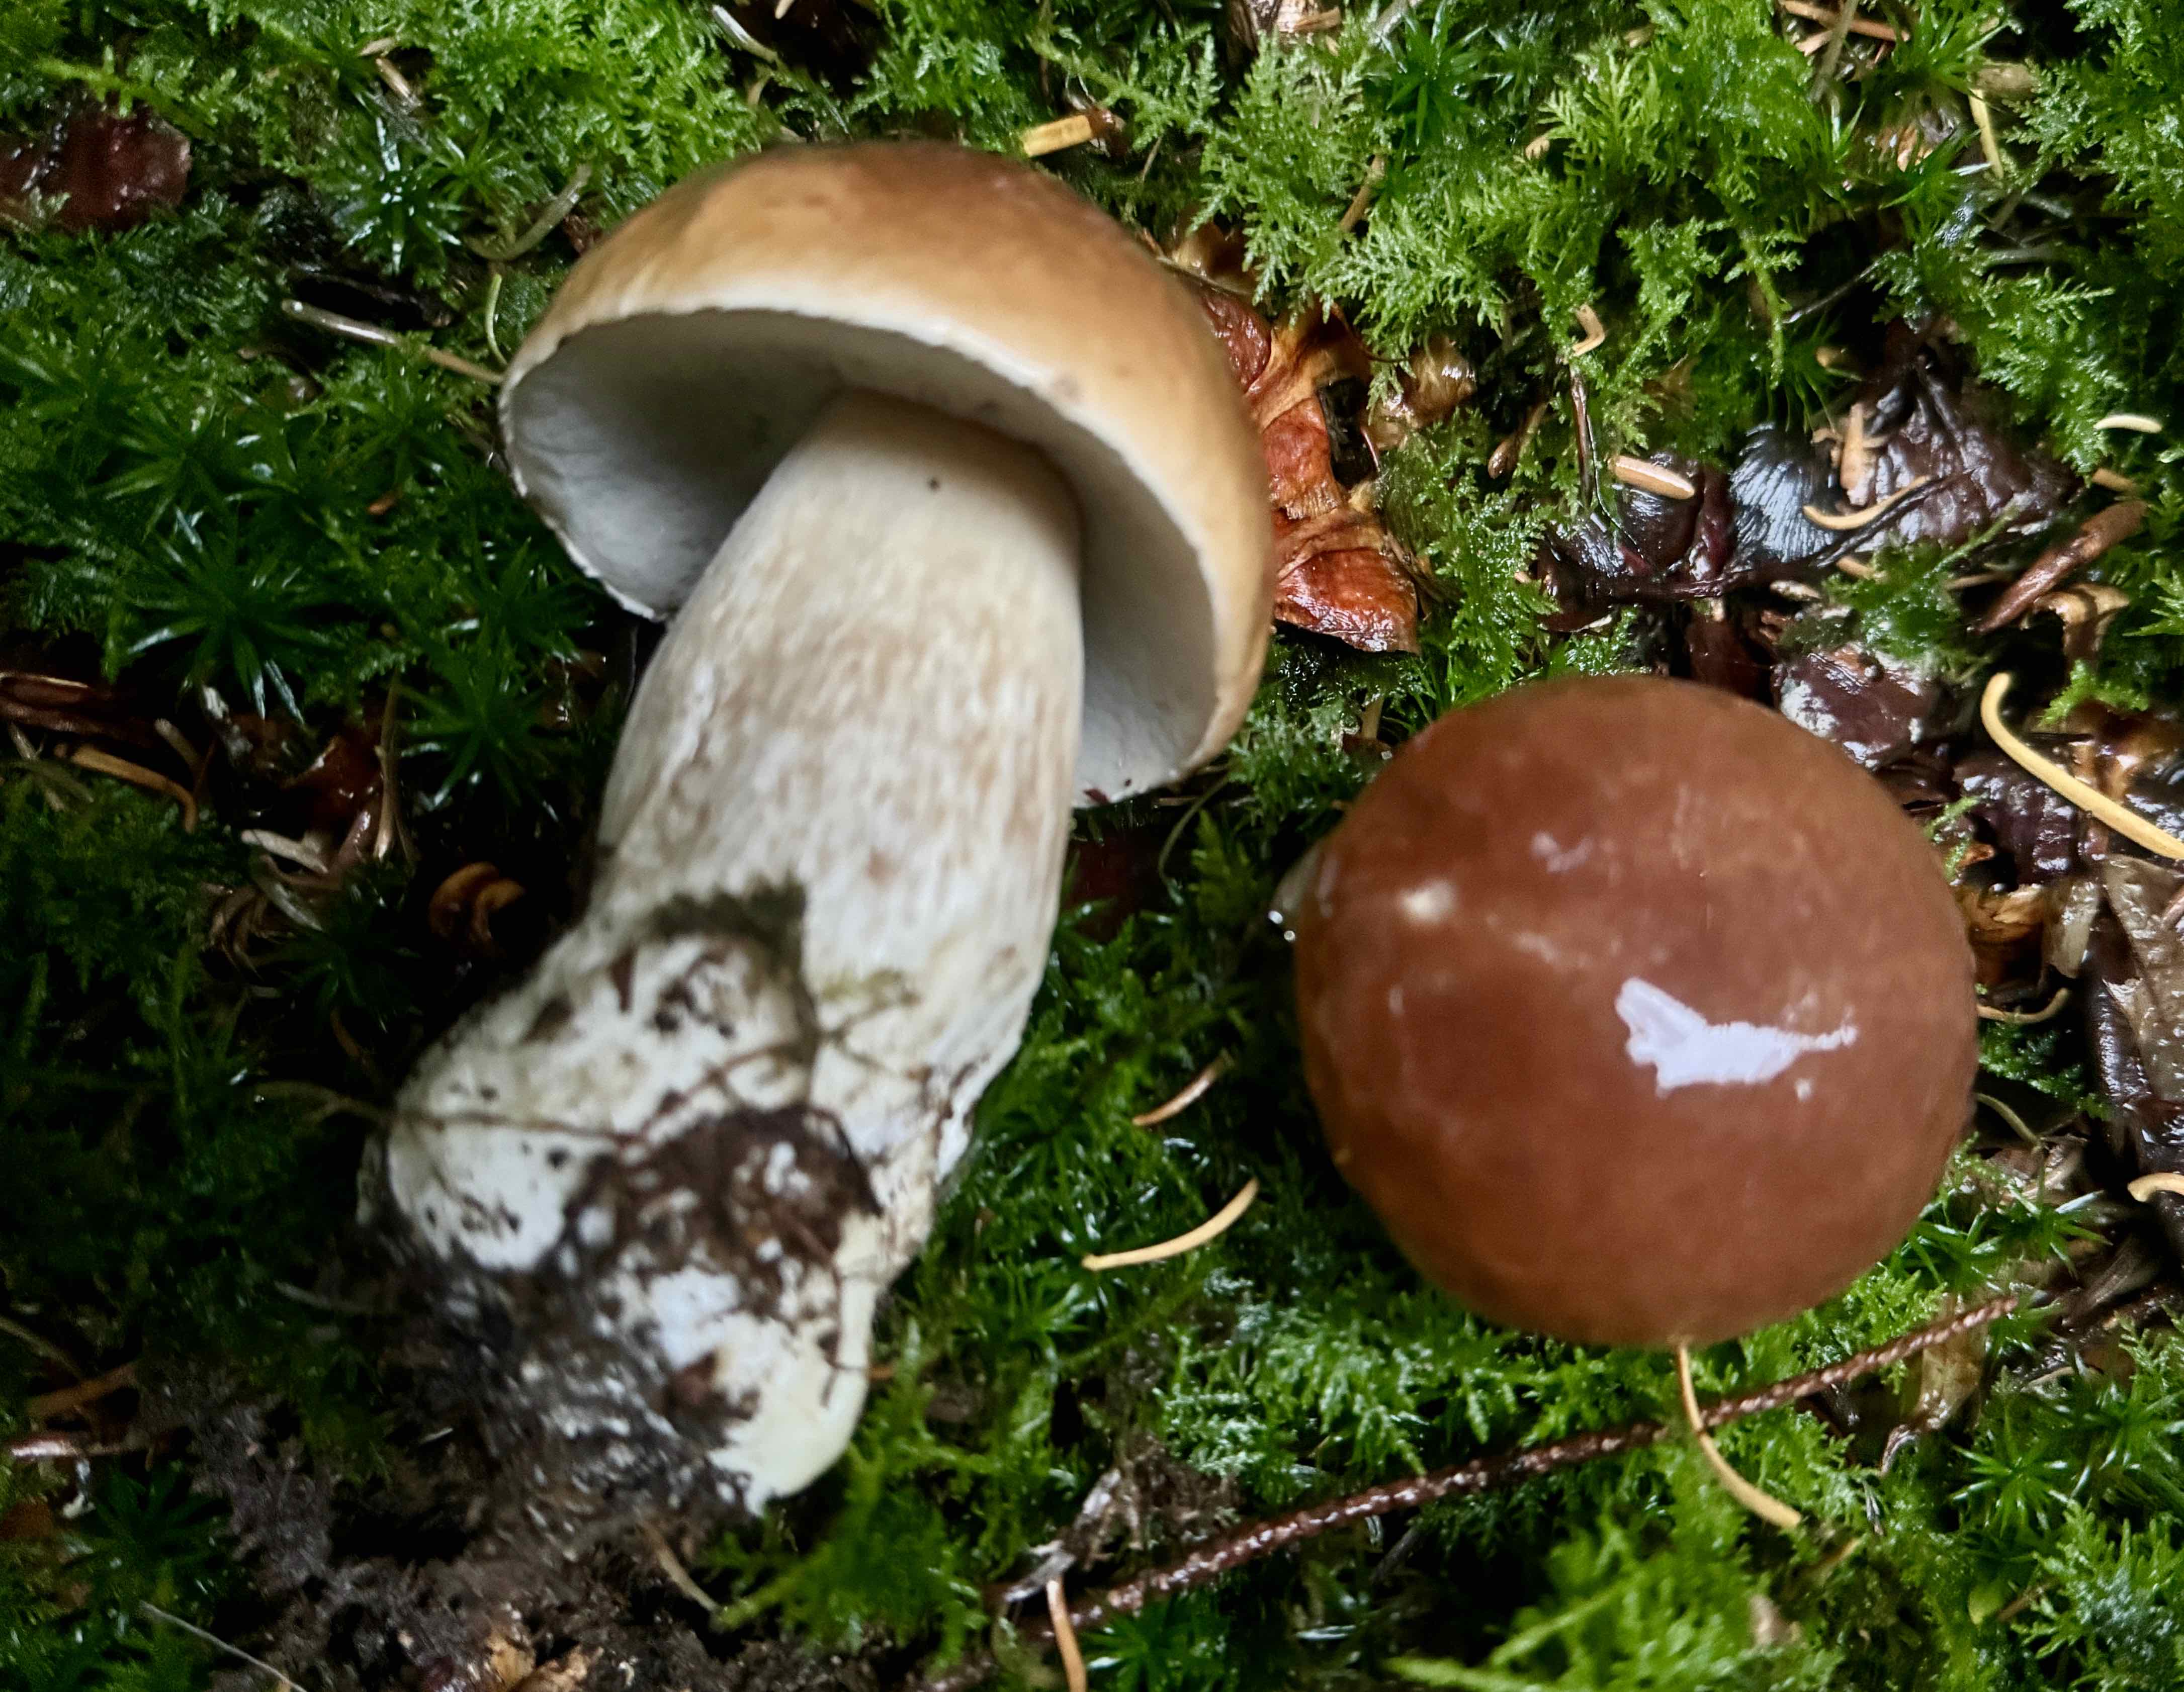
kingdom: Fungi
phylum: Basidiomycota
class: Agaricomycetes
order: Boletales
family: Boletaceae
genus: Boletus
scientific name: Boletus edulis
